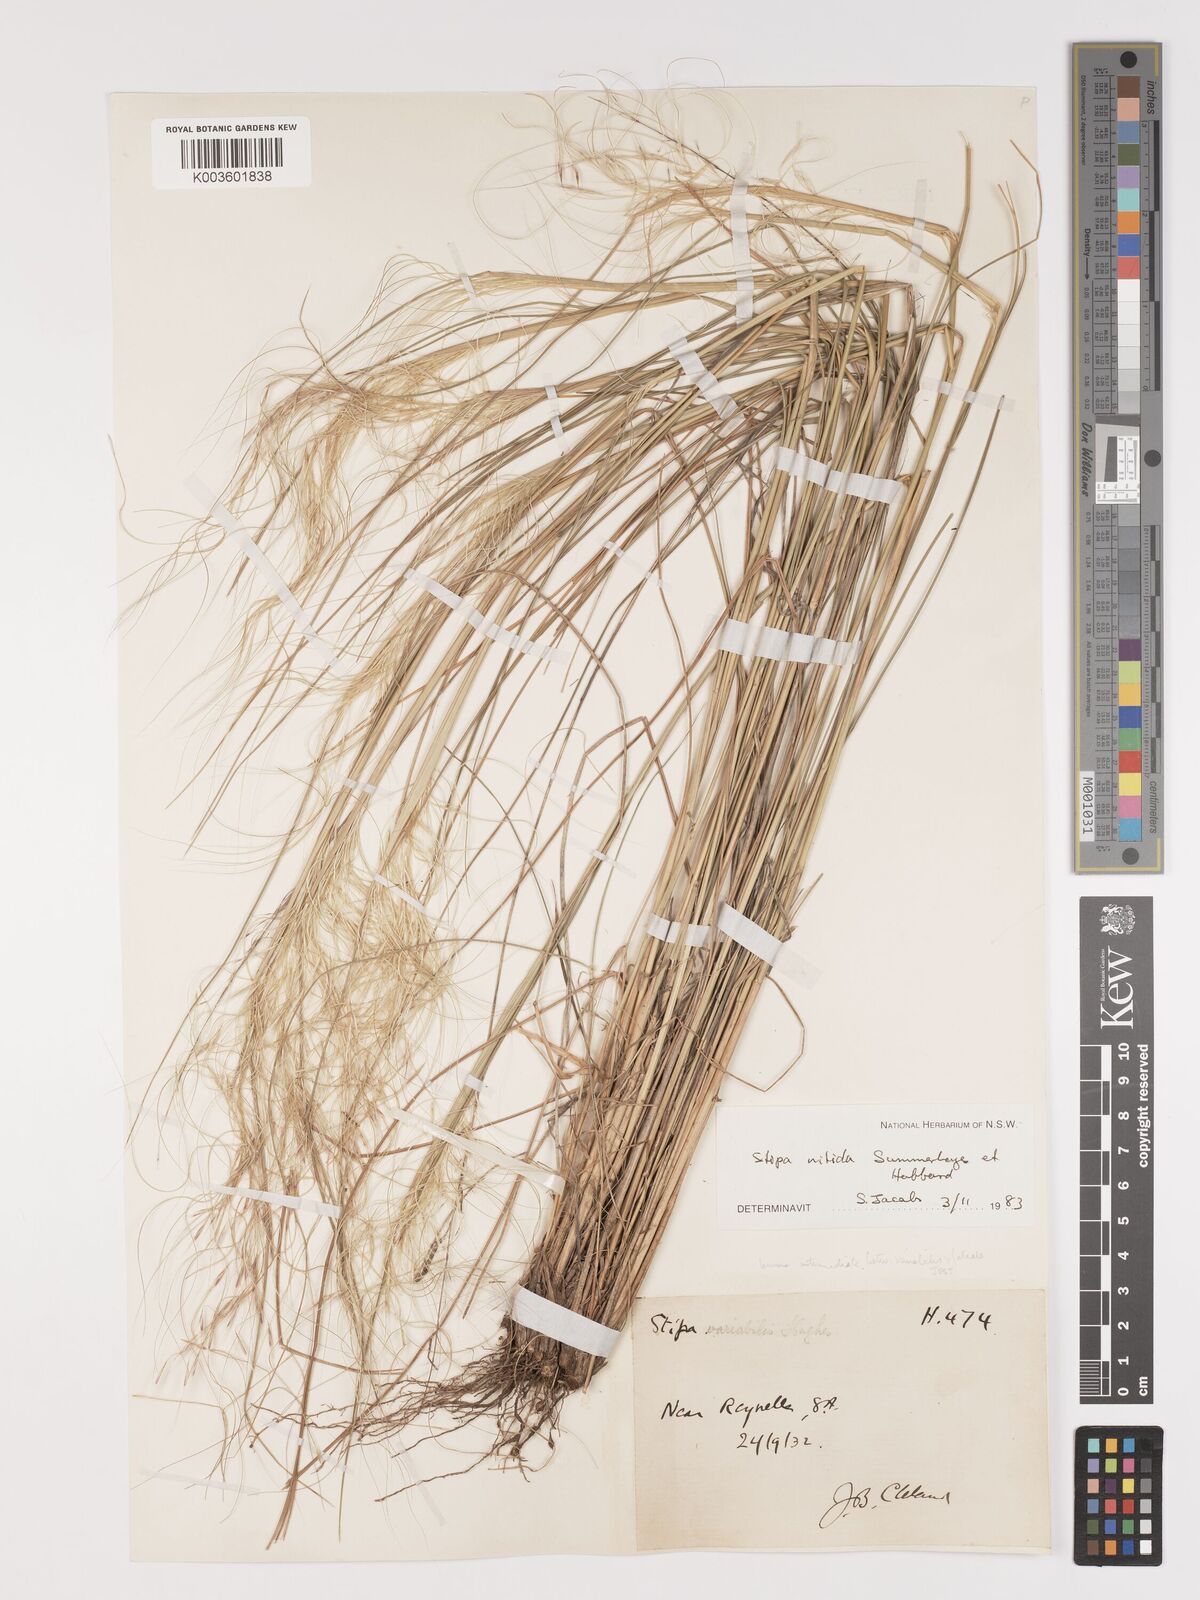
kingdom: Plantae
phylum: Tracheophyta
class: Liliopsida
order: Poales
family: Poaceae
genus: Austrostipa
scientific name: Austrostipa nitida
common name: Balcarra grass
